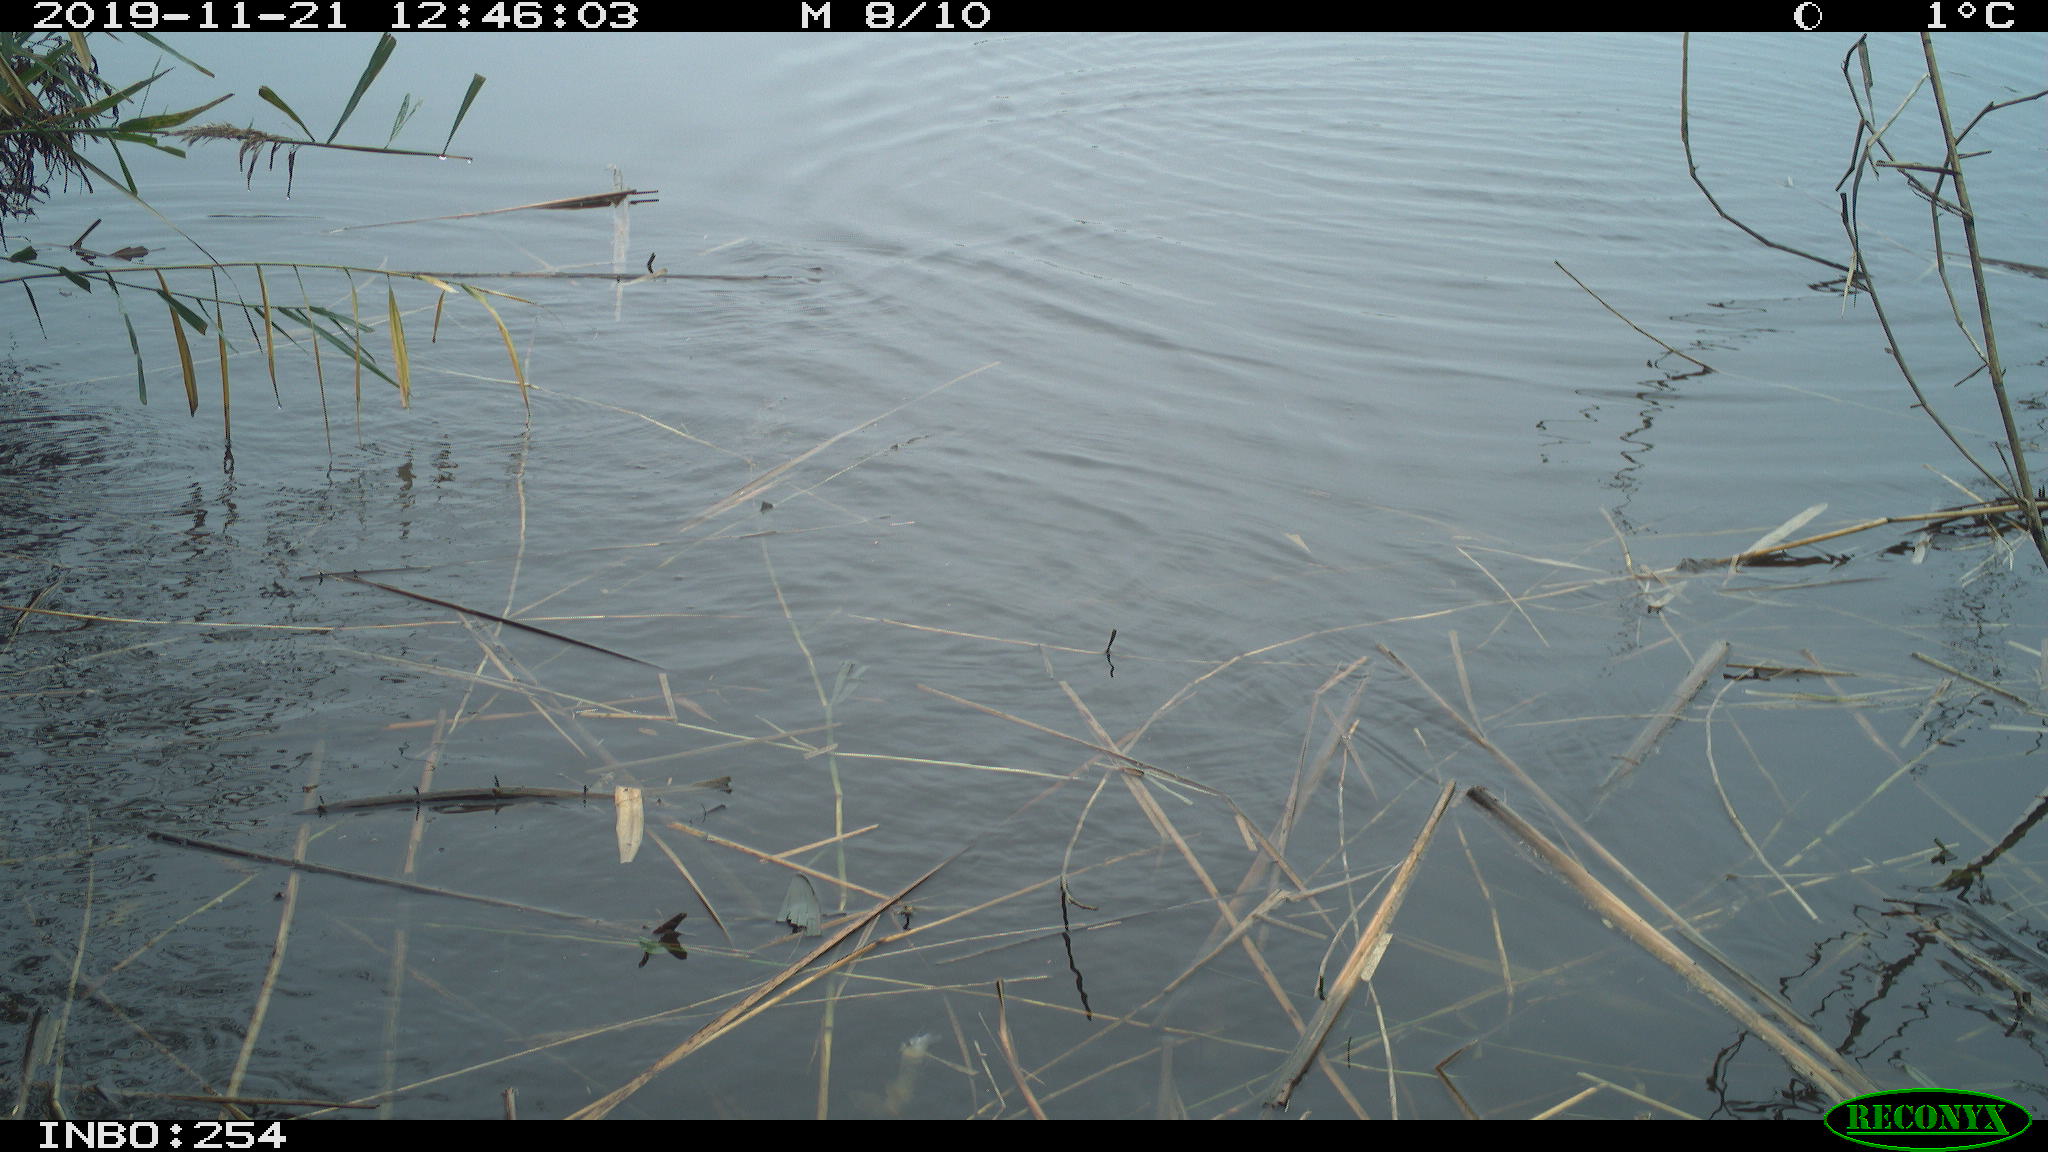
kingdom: Animalia
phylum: Chordata
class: Aves
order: Gruiformes
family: Rallidae
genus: Gallinula
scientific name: Gallinula chloropus
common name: Common moorhen
